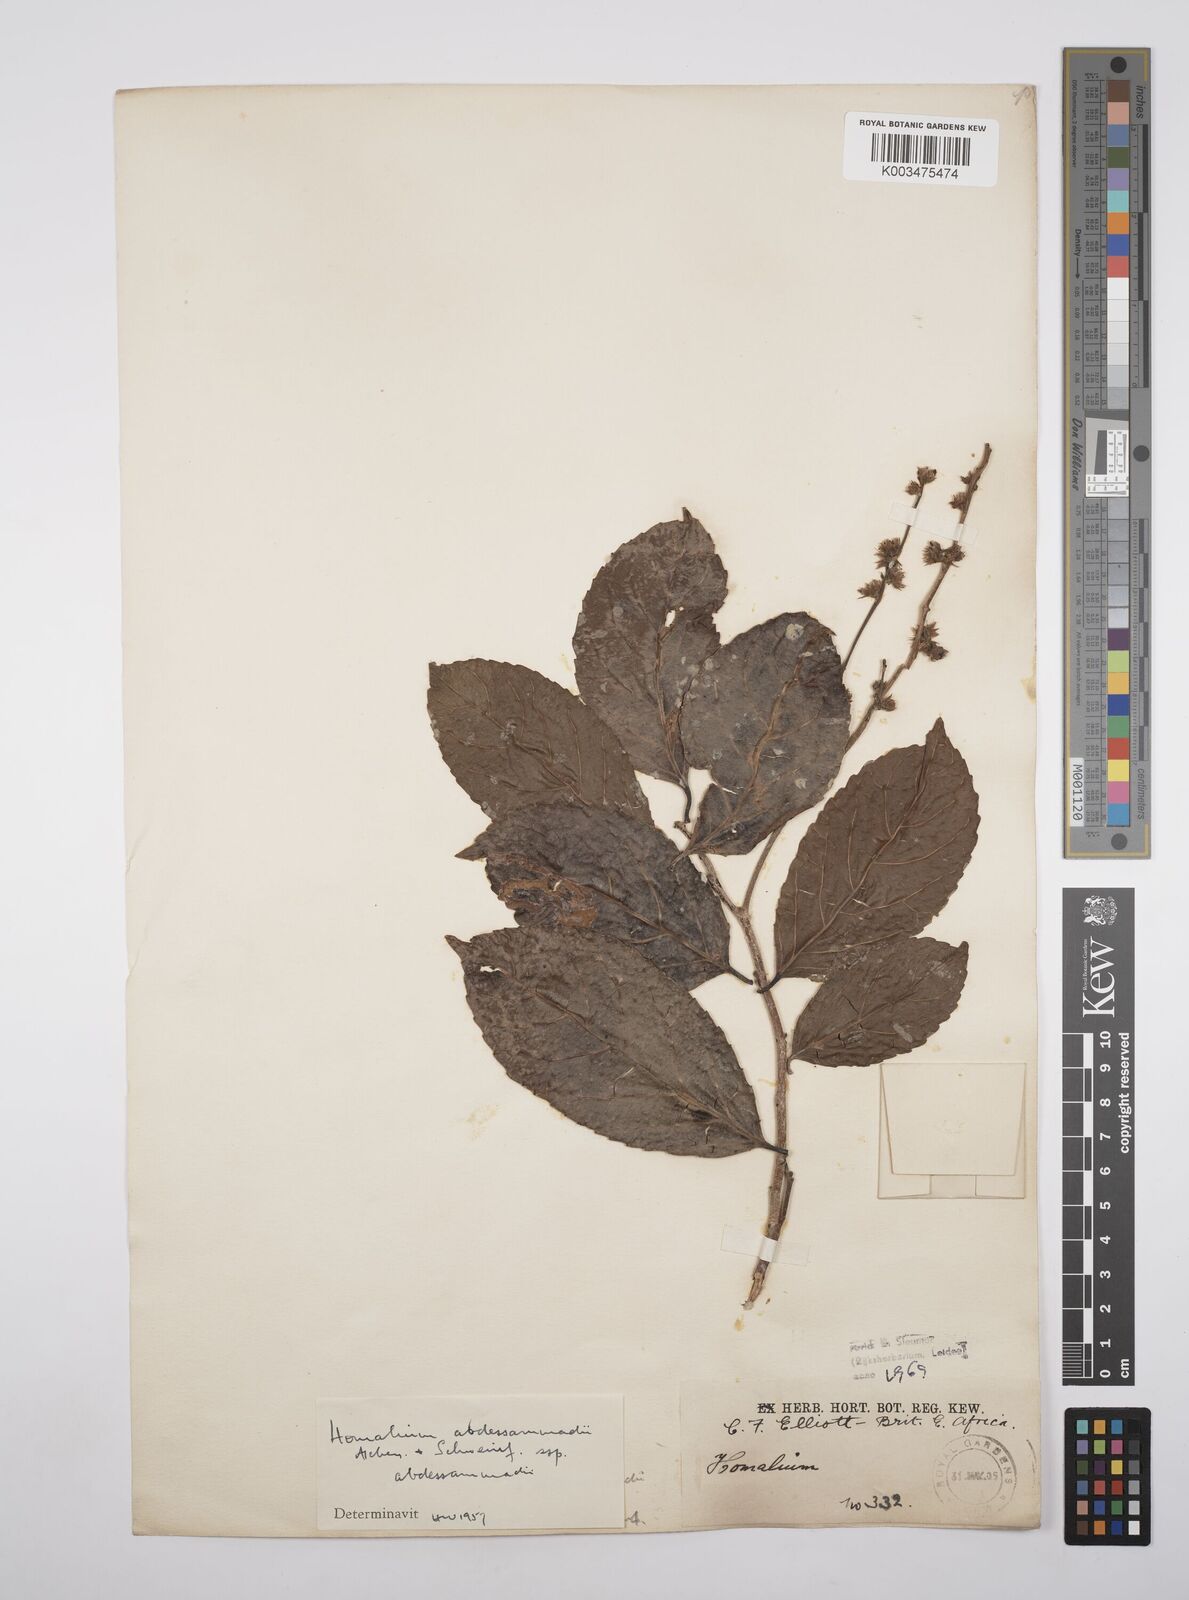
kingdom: Plantae
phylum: Tracheophyta
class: Magnoliopsida
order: Malpighiales
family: Salicaceae
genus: Homalium
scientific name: Homalium abdessammadii
